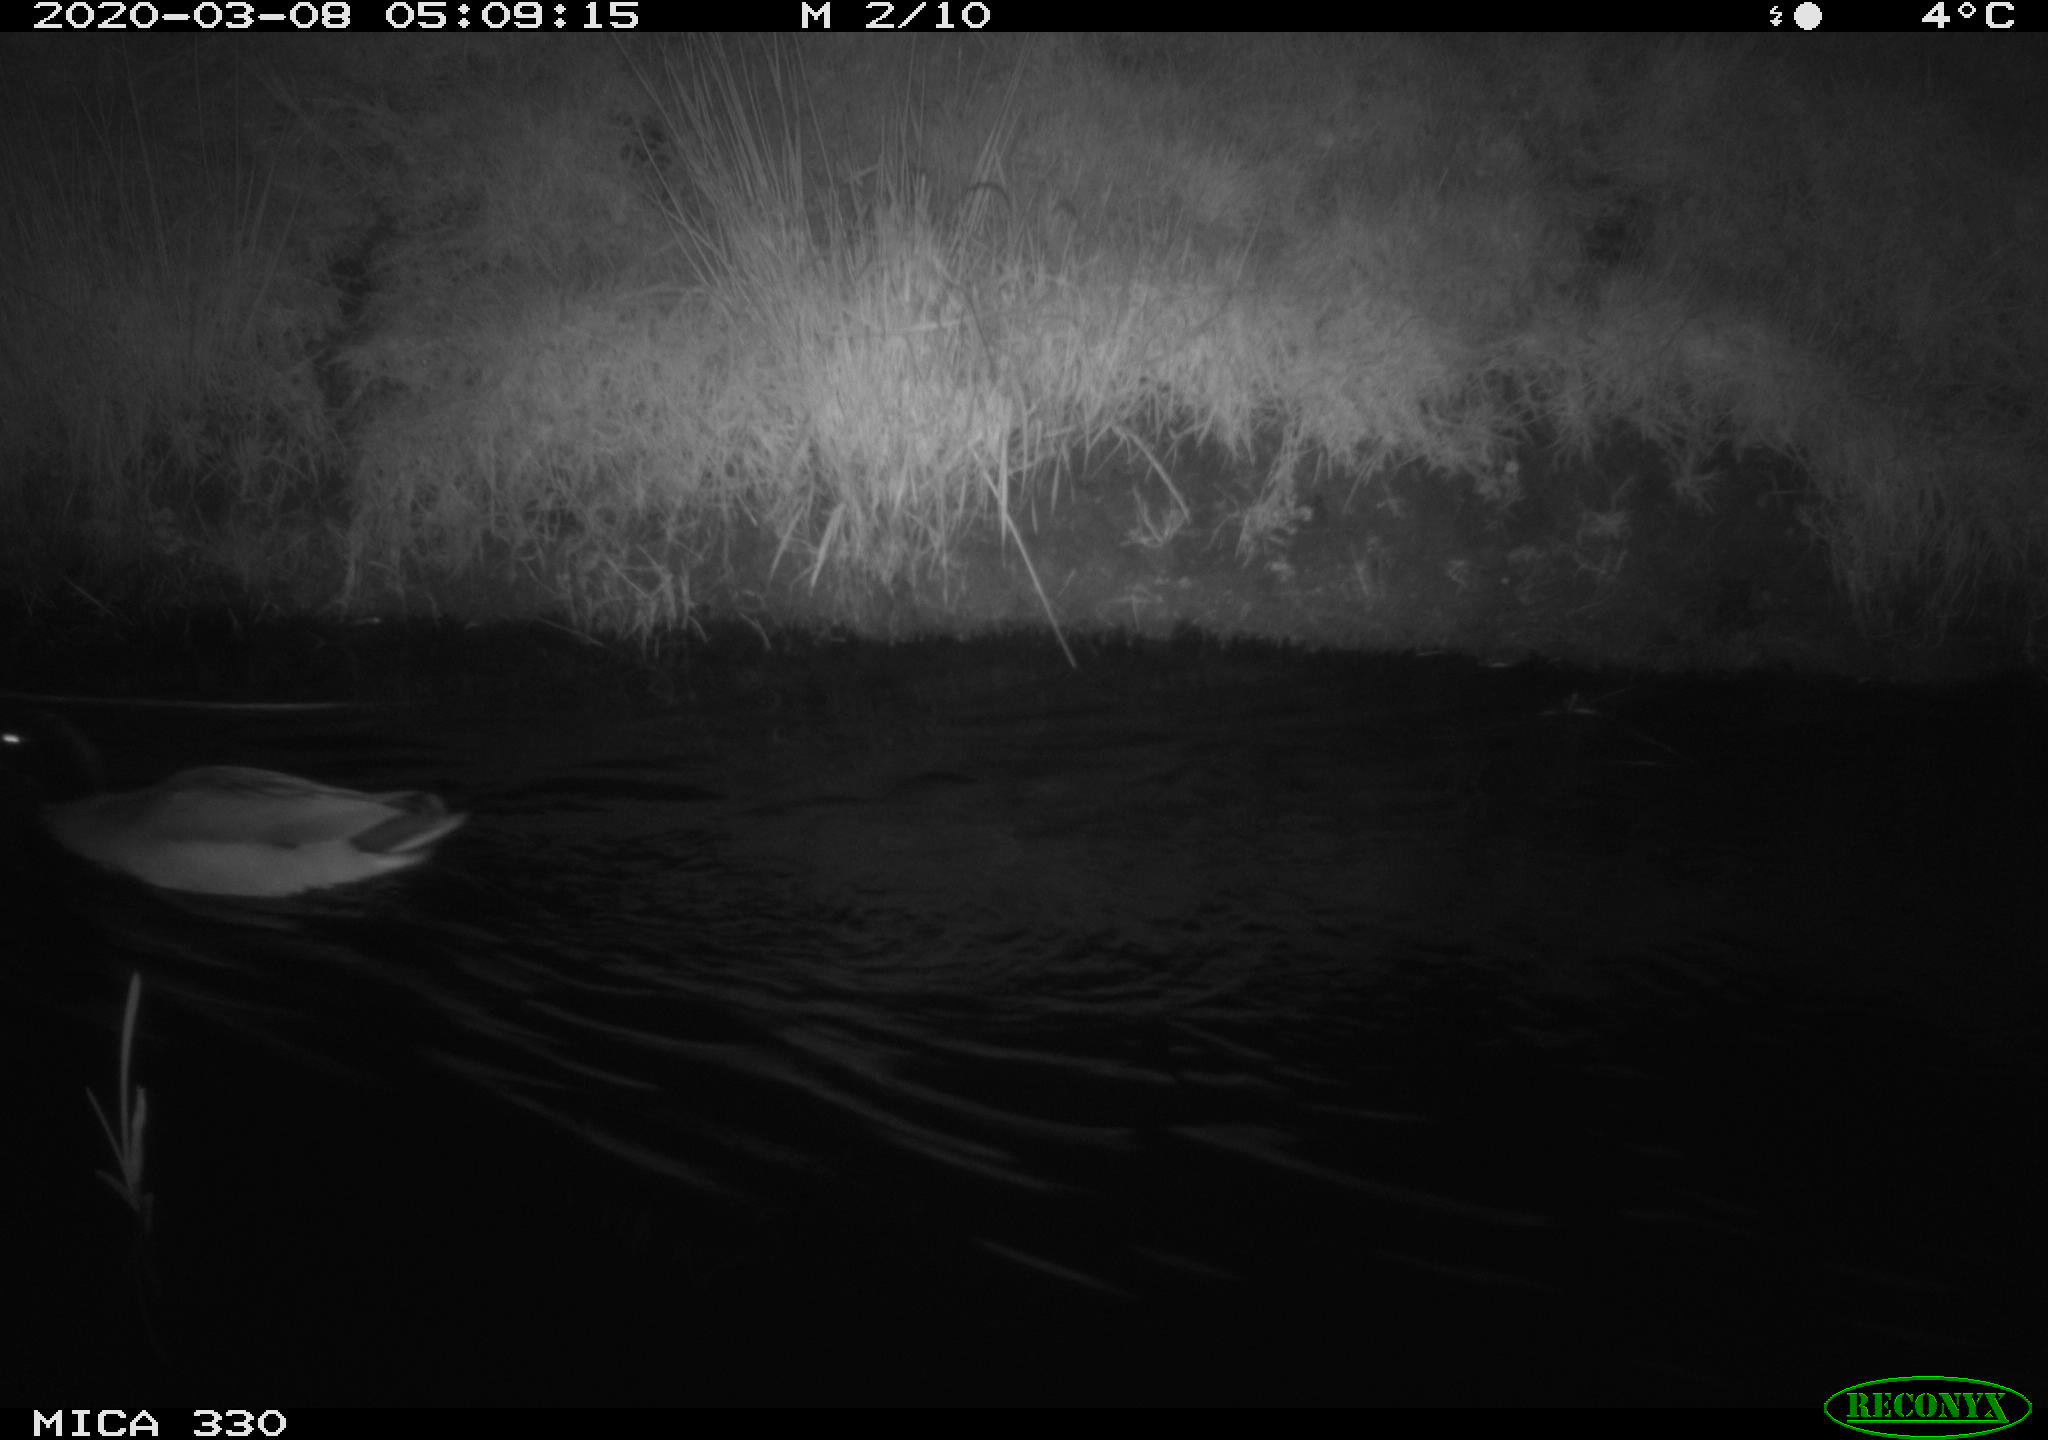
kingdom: Animalia
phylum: Chordata
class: Aves
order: Anseriformes
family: Anatidae
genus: Anas
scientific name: Anas platyrhynchos
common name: Mallard
